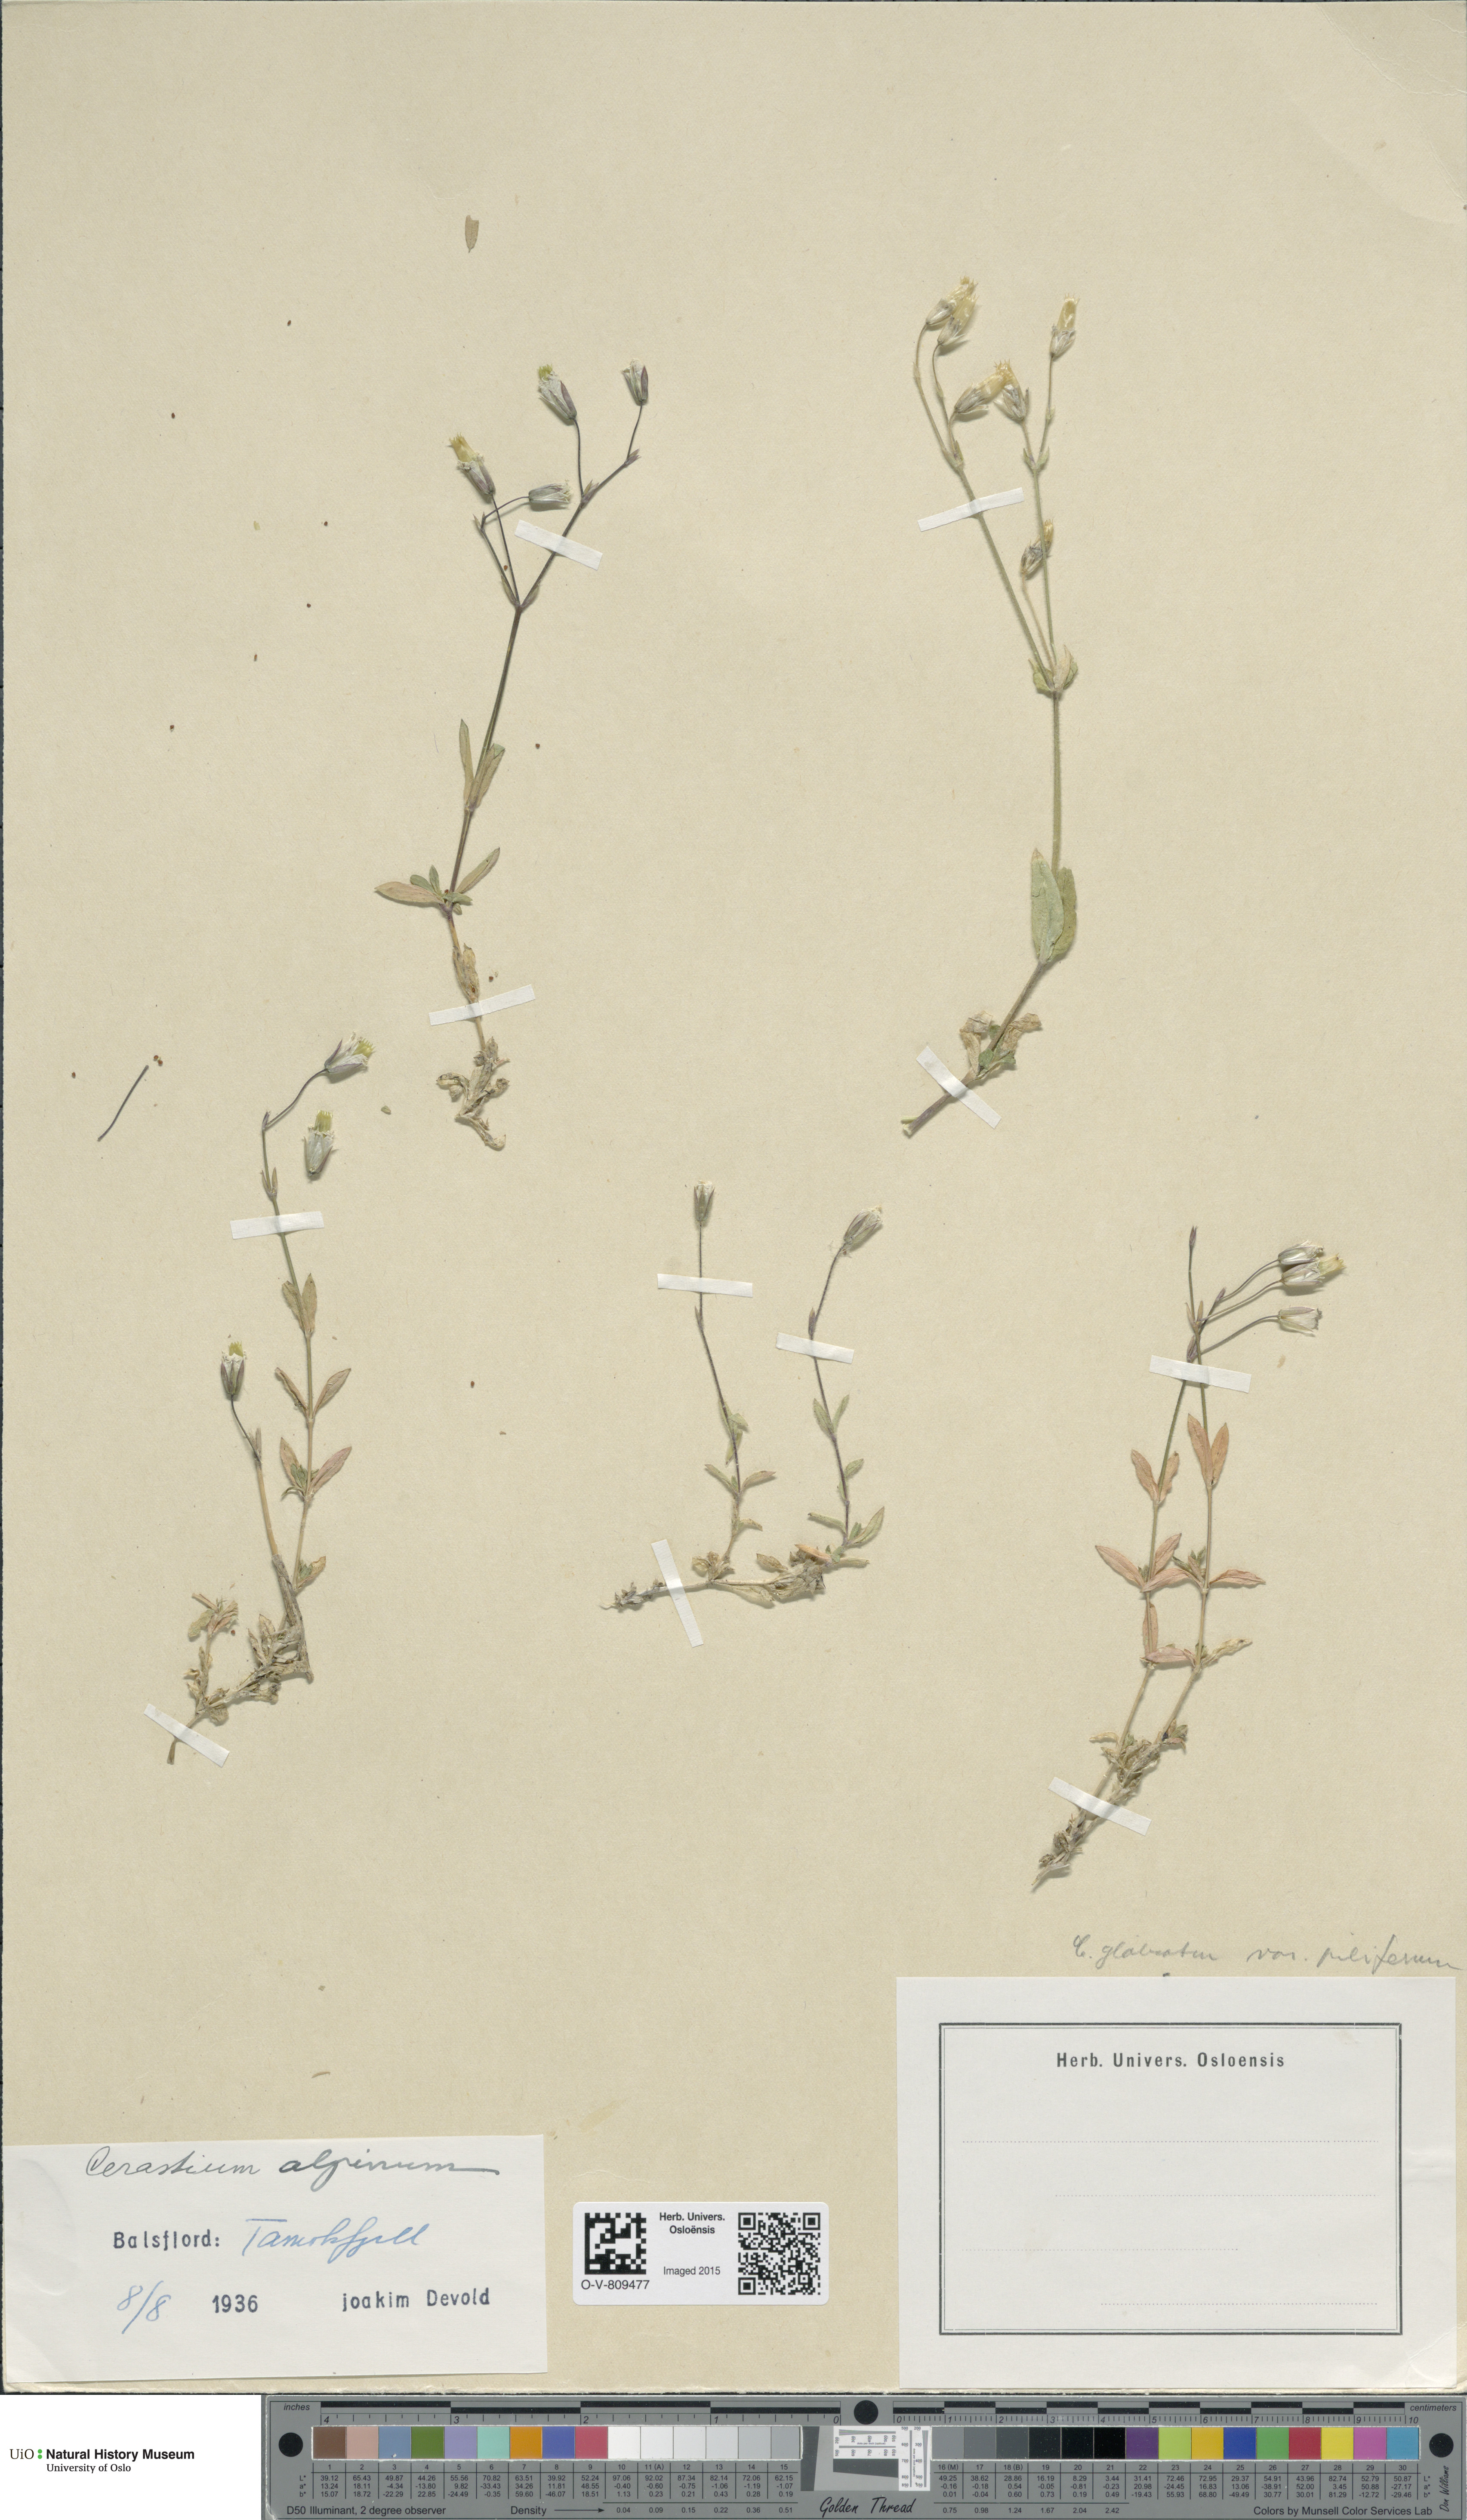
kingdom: Plantae
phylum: Tracheophyta
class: Magnoliopsida
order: Caryophyllales
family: Caryophyllaceae
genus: Cerastium
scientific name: Cerastium alpinum
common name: Alpine mouse-ear
